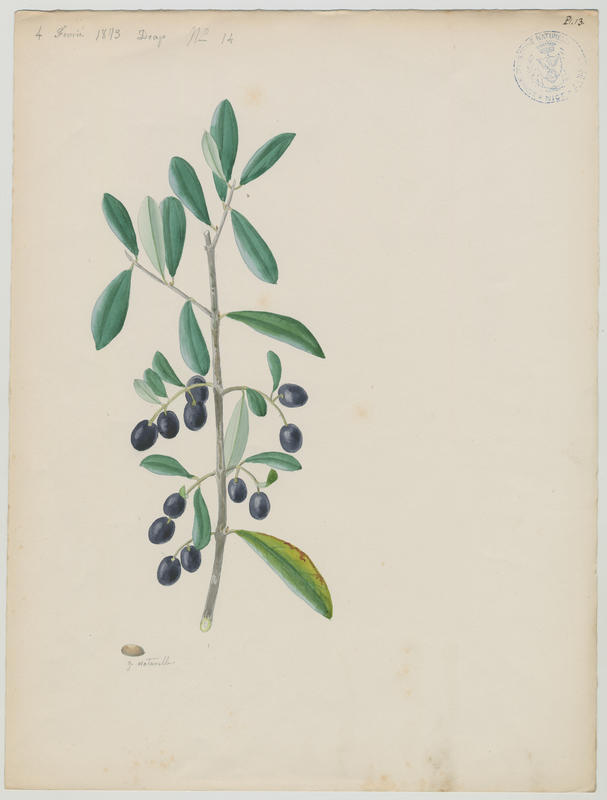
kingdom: Plantae
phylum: Tracheophyta
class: Magnoliopsida
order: Lamiales
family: Oleaceae
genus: Olea
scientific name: Olea europaea
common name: Olive
